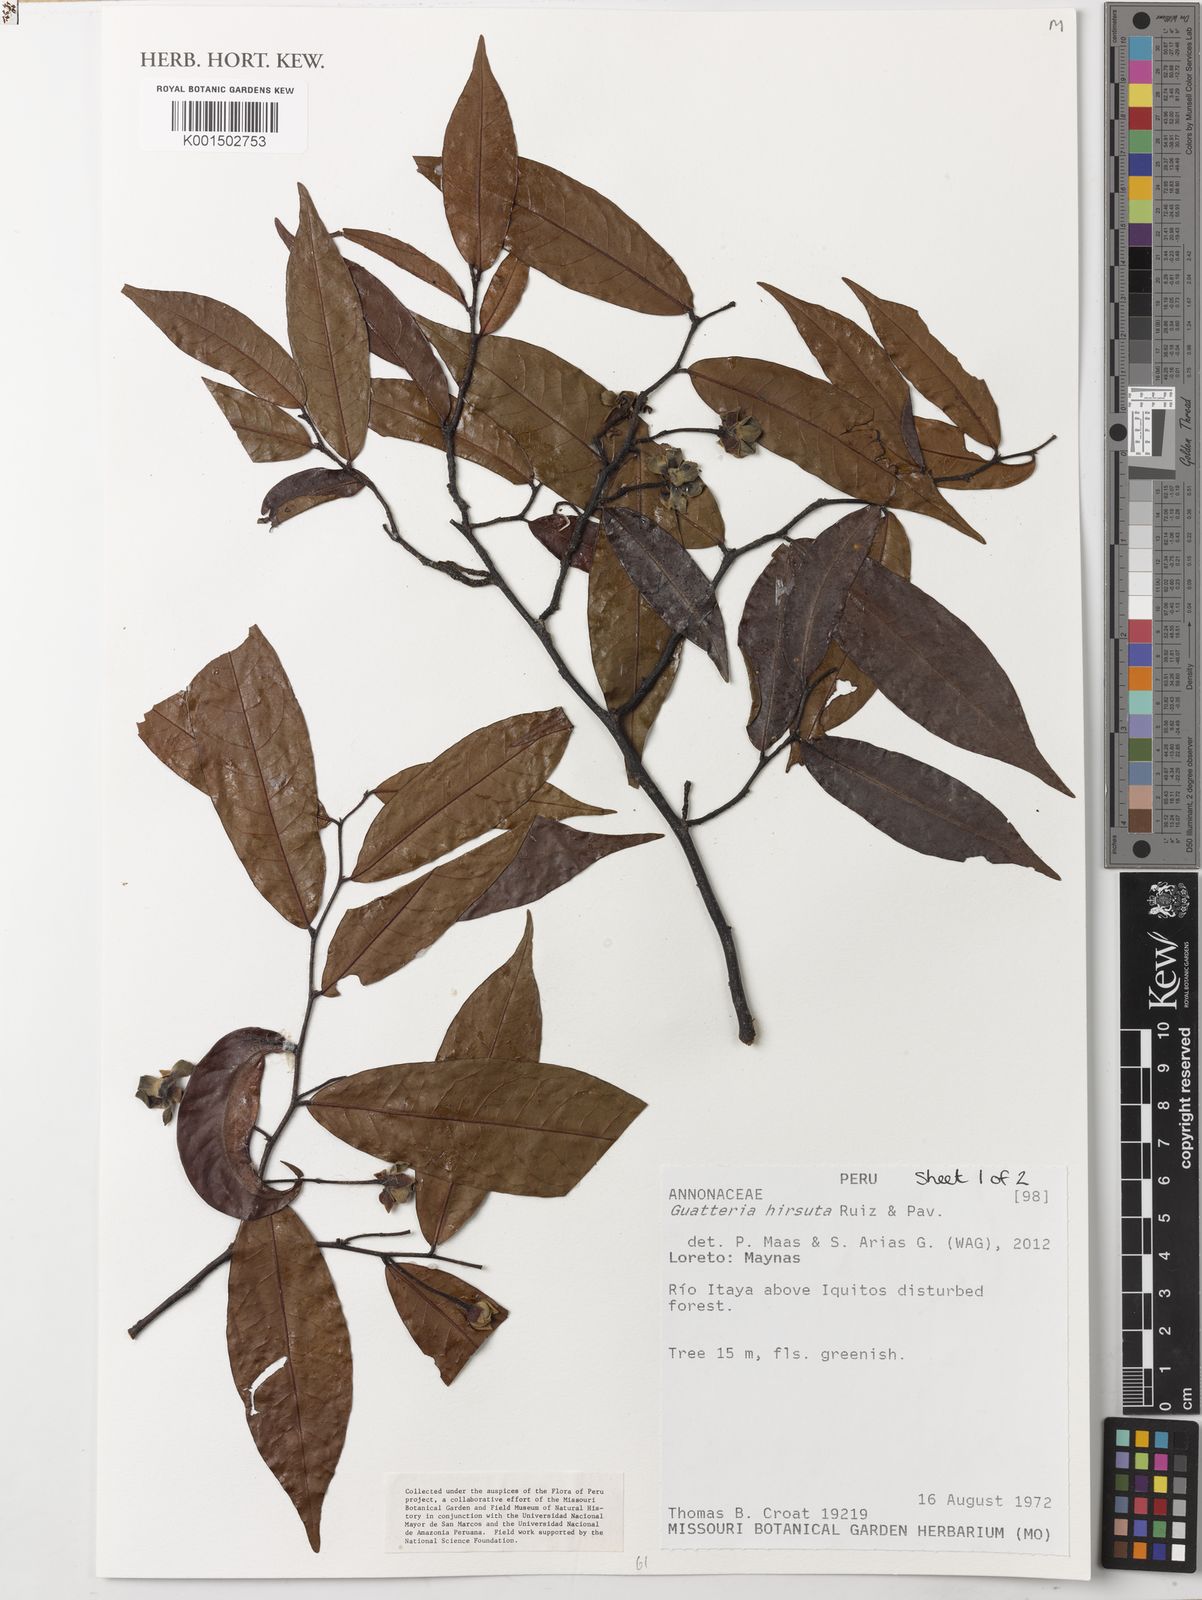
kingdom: Plantae
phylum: Tracheophyta
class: Magnoliopsida
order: Magnoliales
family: Annonaceae
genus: Guatteria
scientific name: Guatteria hirsuta
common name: Laurel
